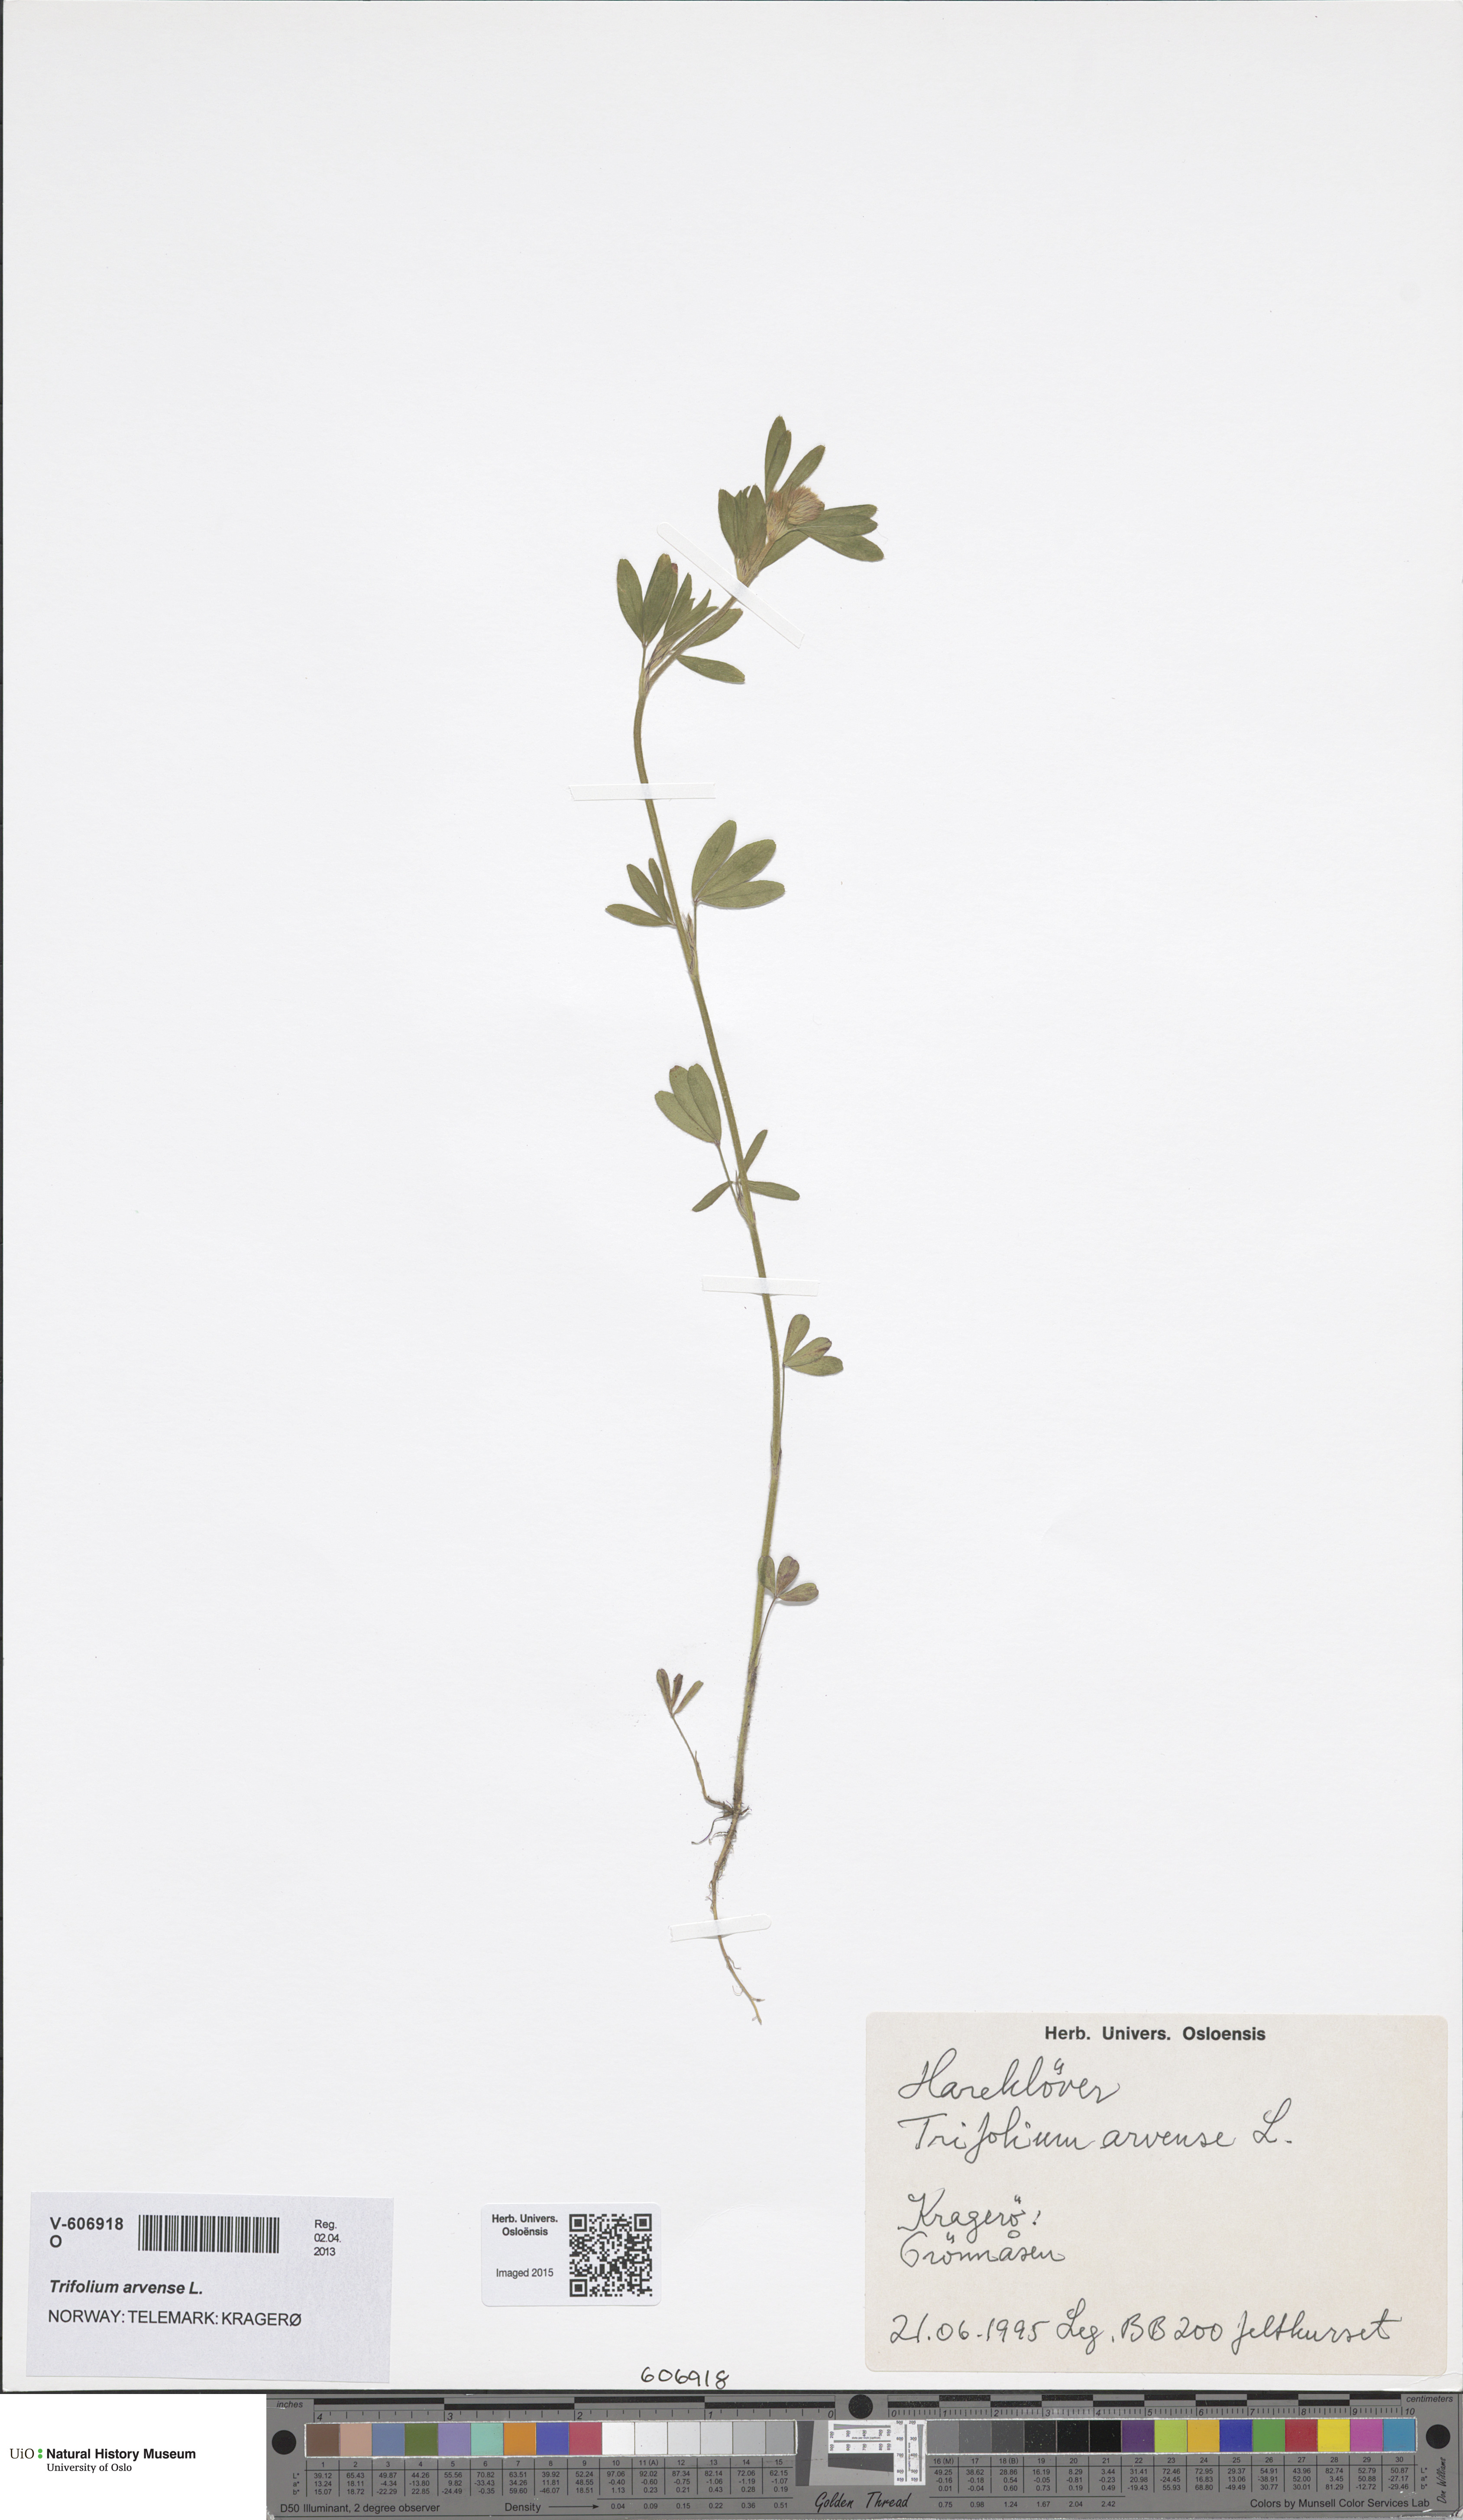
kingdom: Plantae
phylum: Tracheophyta
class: Magnoliopsida
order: Fabales
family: Fabaceae
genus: Trifolium
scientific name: Trifolium arvense
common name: Hare's-foot clover
